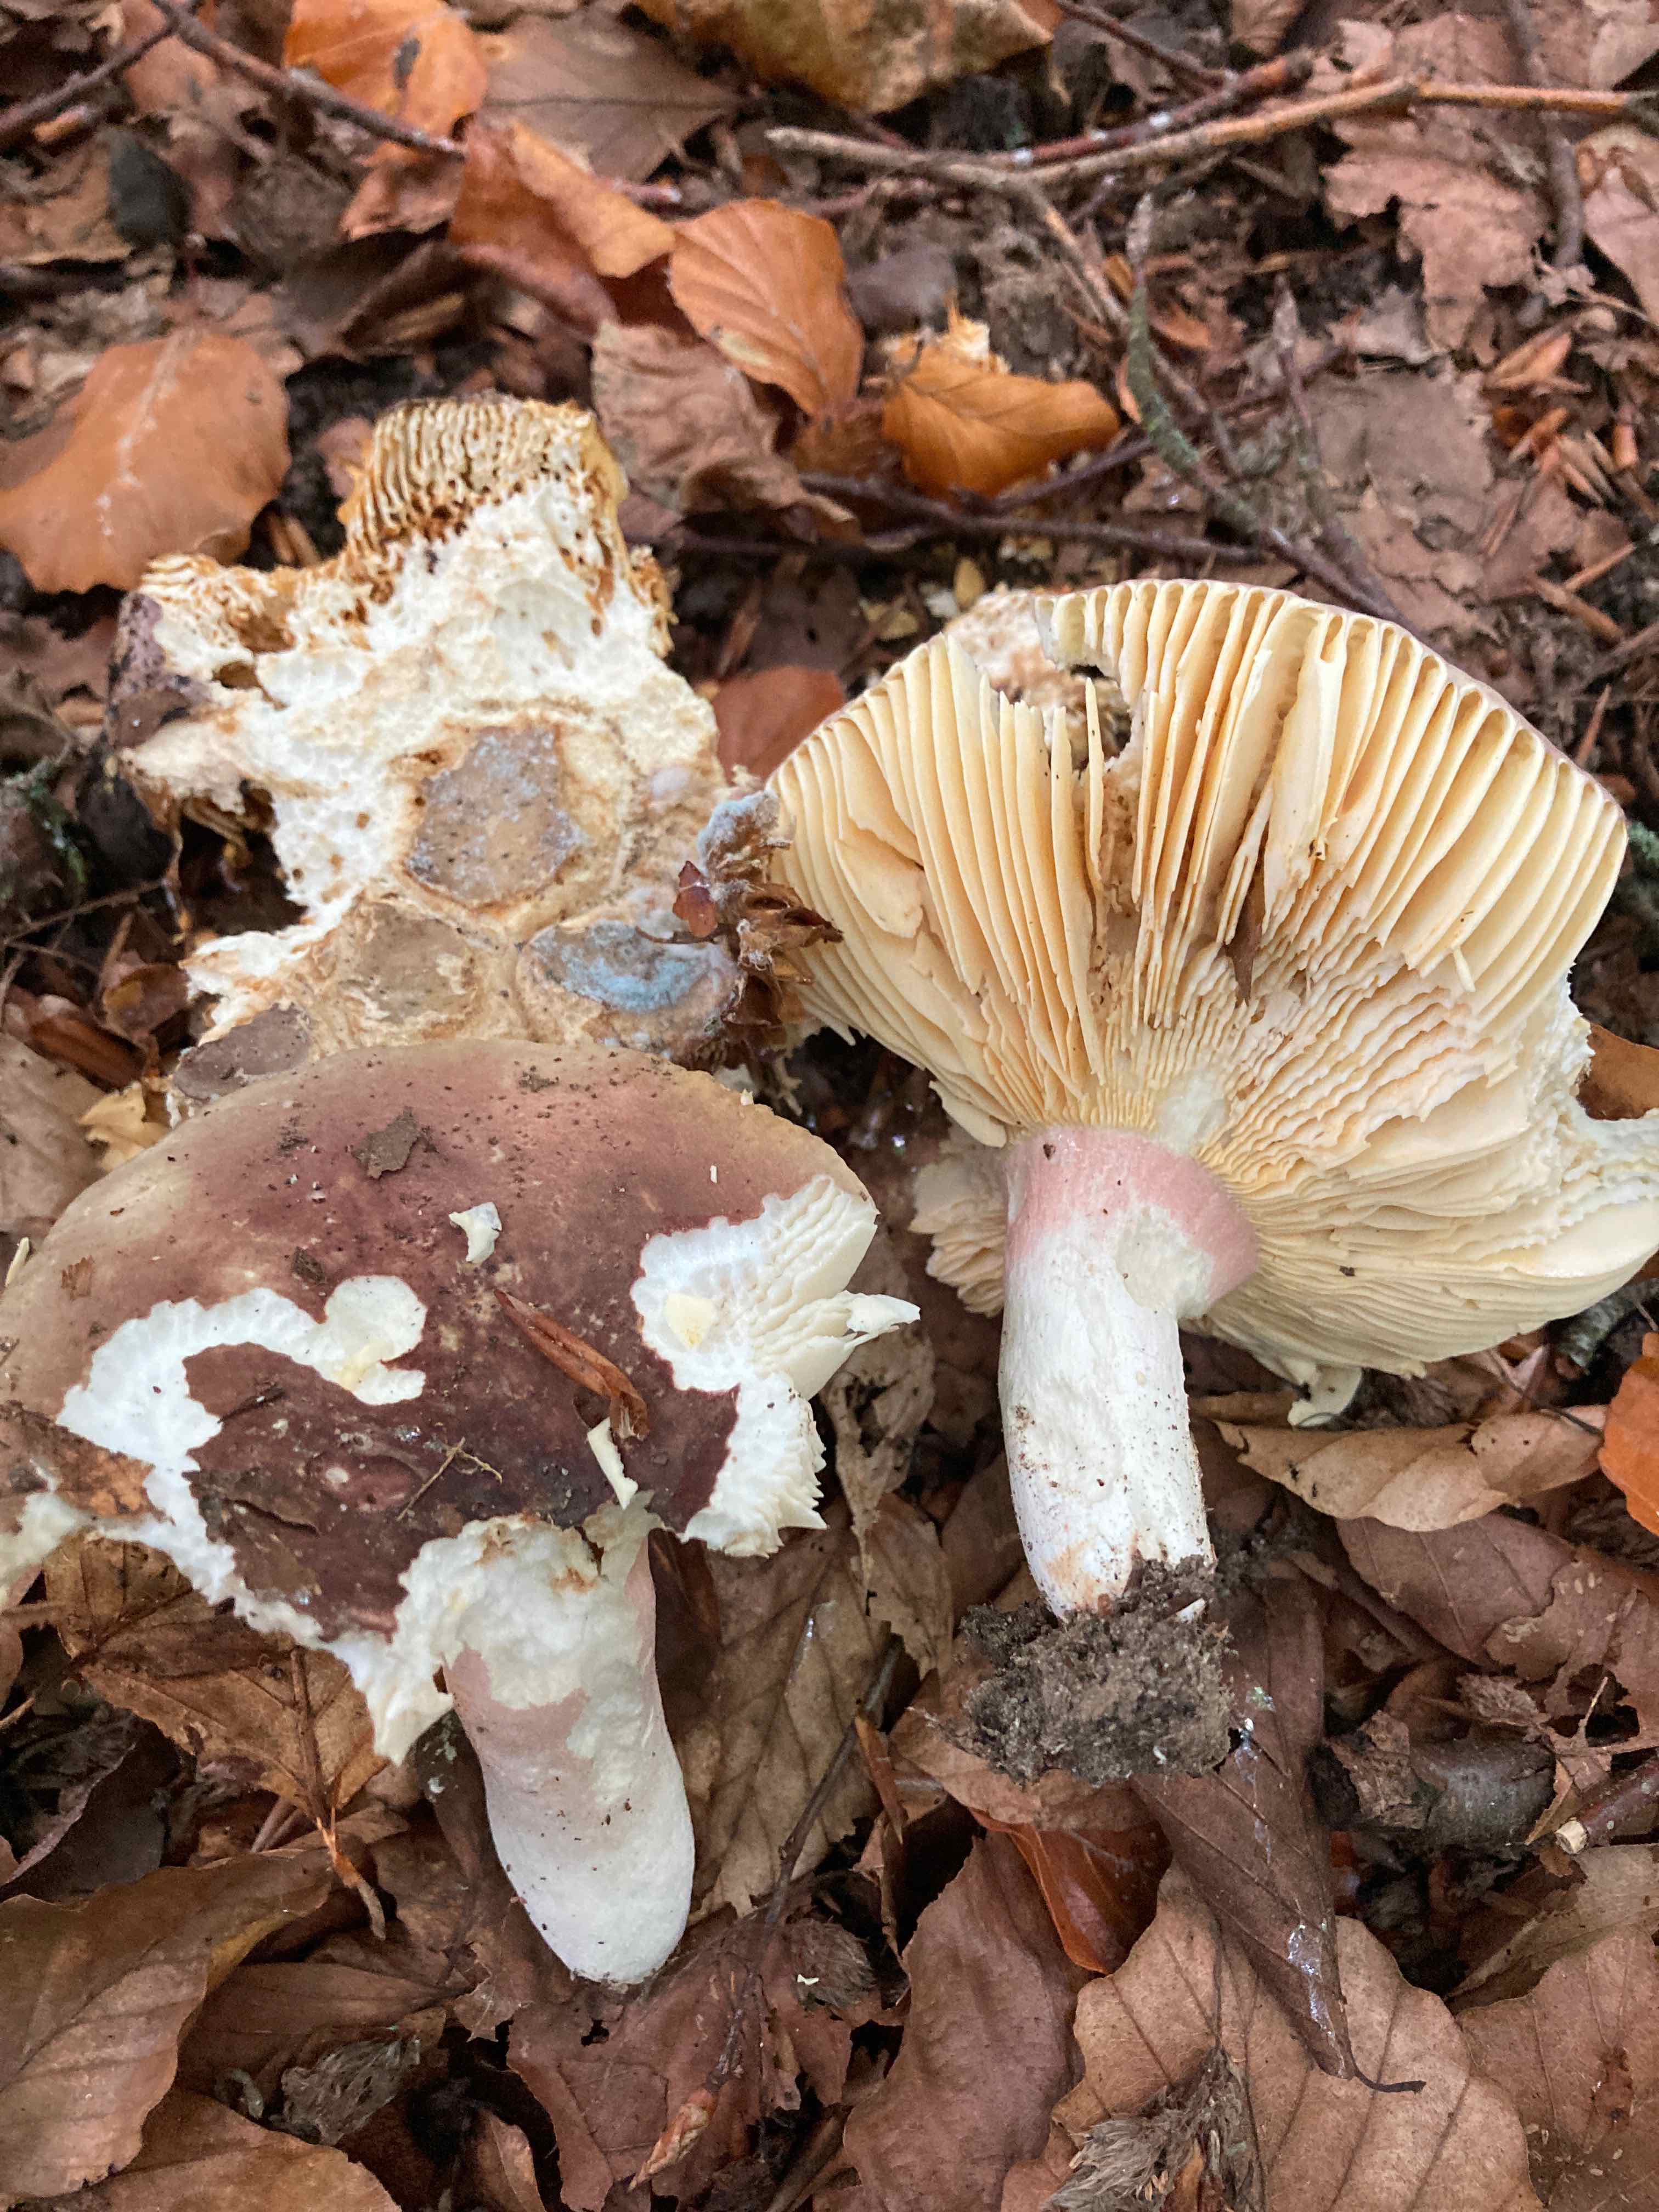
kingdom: Fungi
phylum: Basidiomycota
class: Agaricomycetes
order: Russulales
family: Russulaceae
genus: Russula
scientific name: Russula olivacea
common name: stor skørhat
